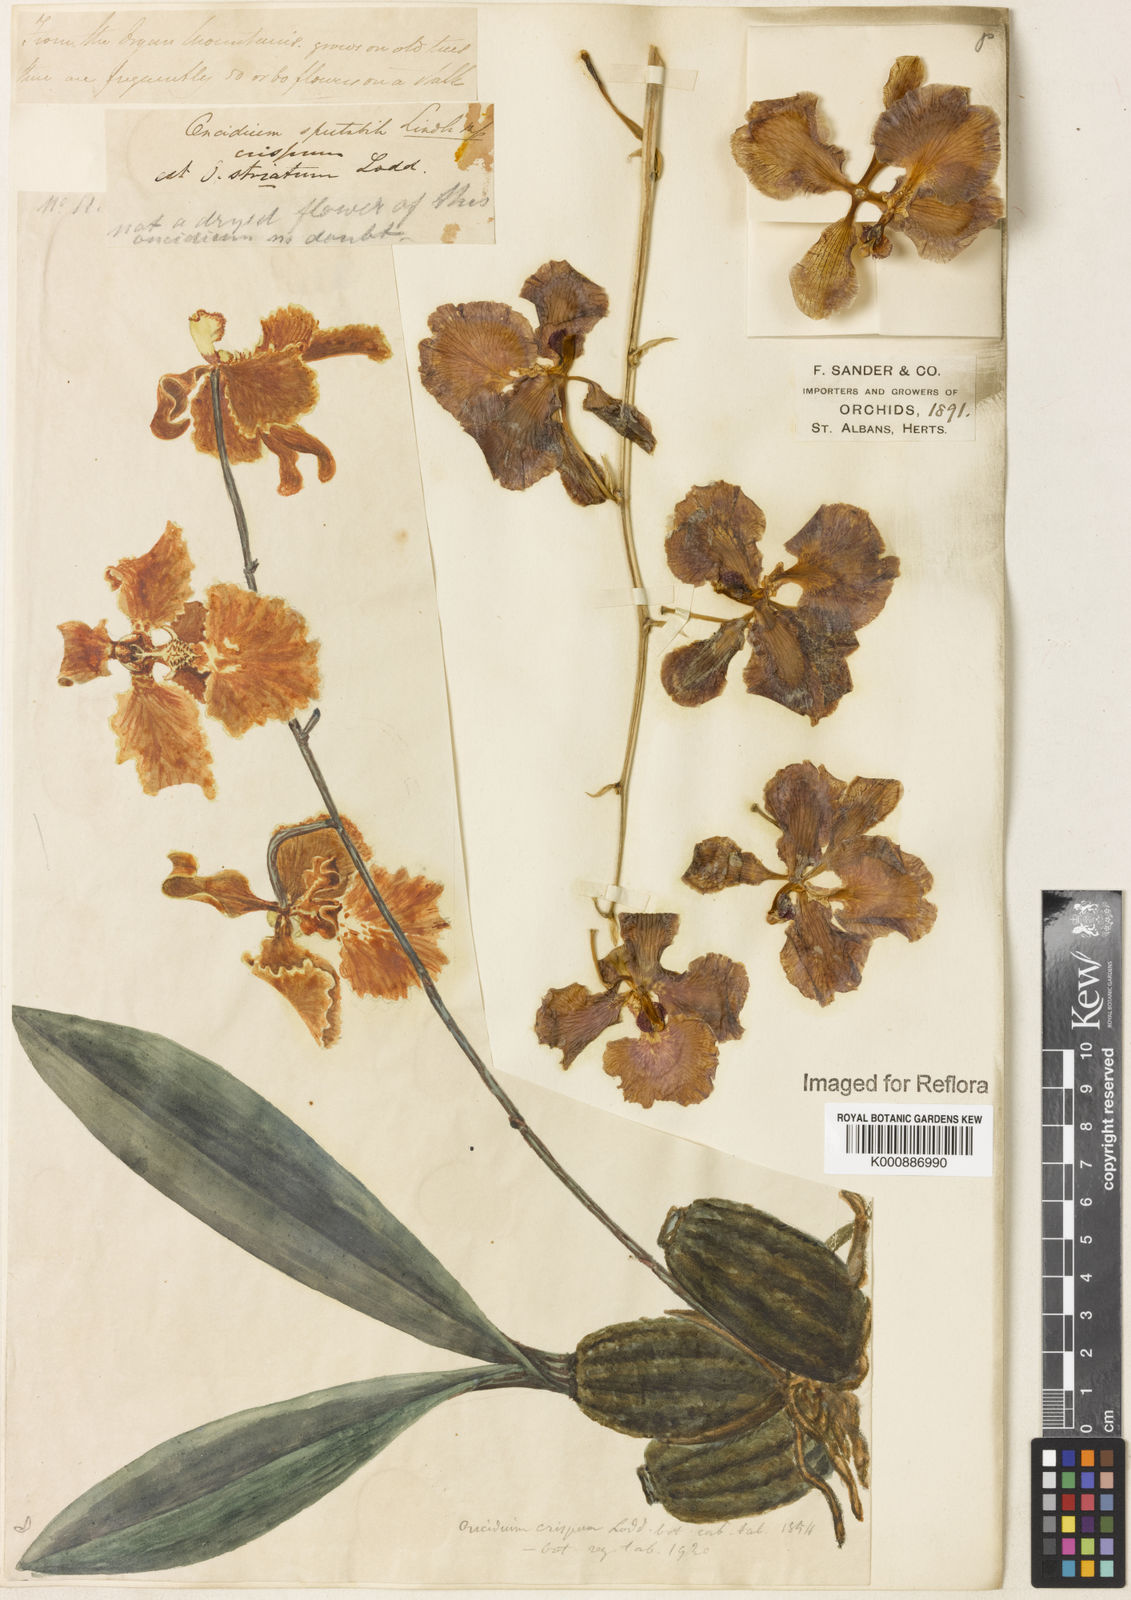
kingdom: Plantae
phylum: Tracheophyta
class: Liliopsida
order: Asparagales
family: Orchidaceae
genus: Gomesa
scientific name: Gomesa imperatoris-maximiliani
